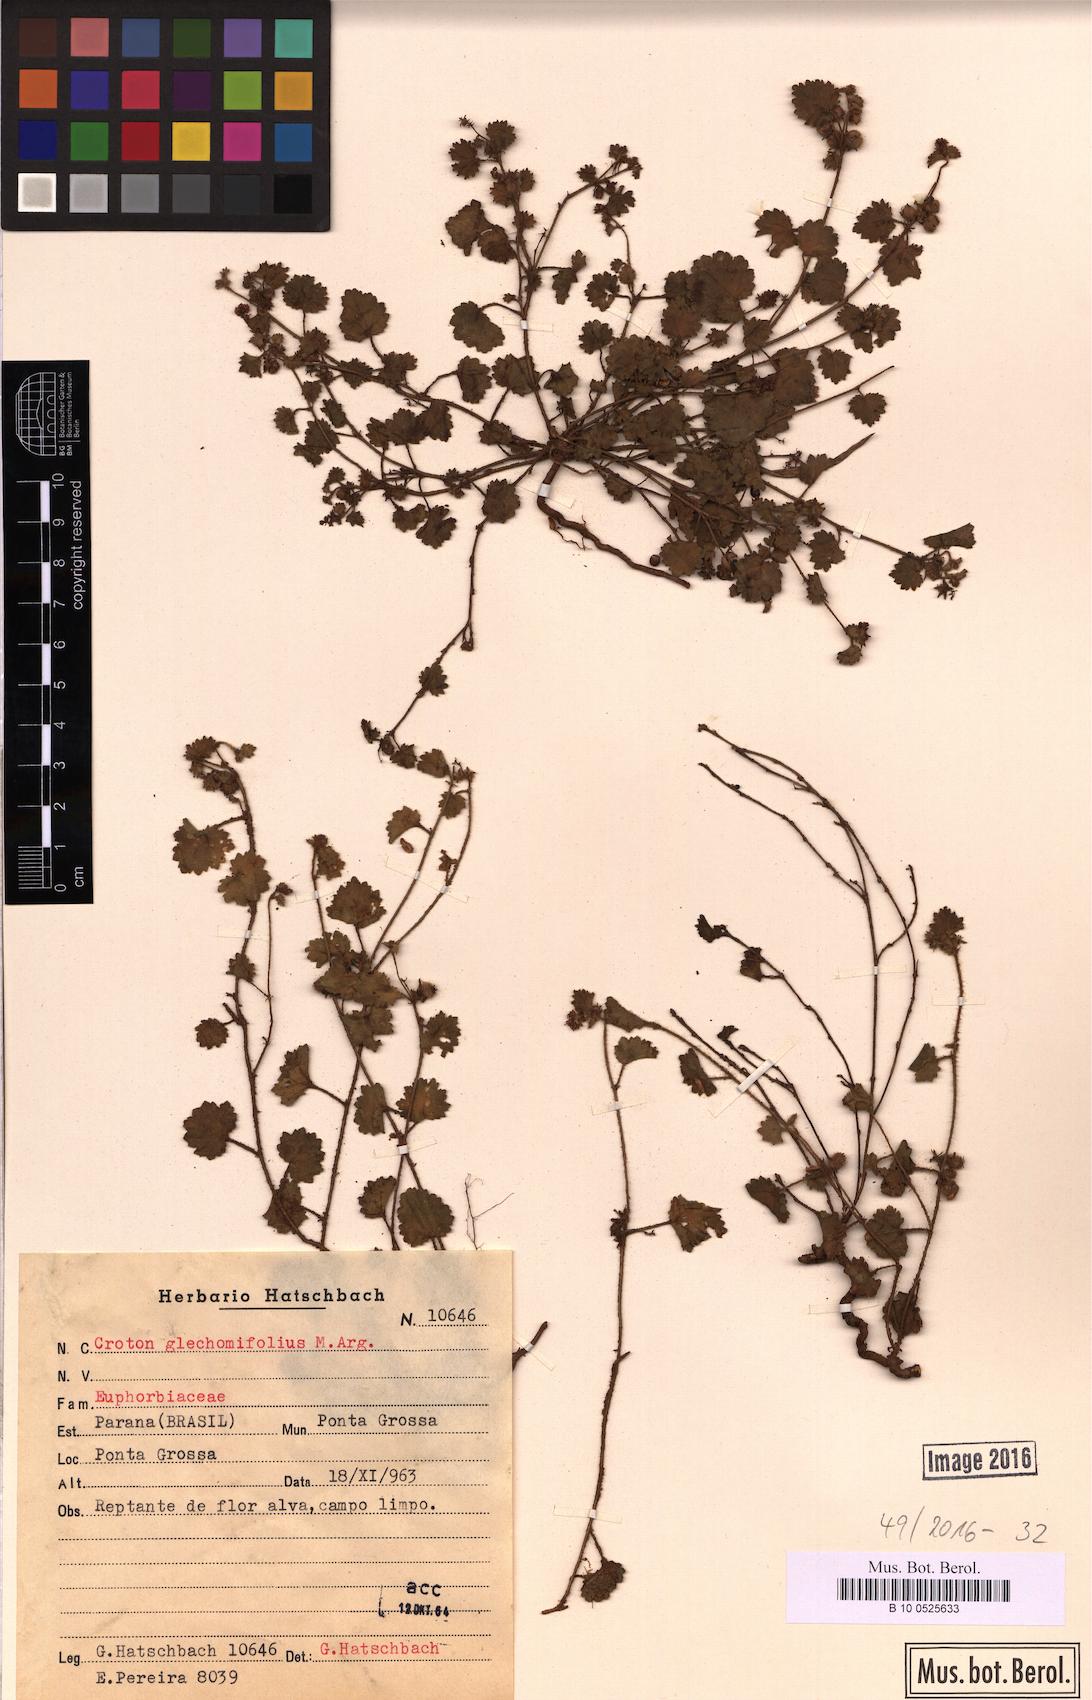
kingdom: Plantae
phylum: Tracheophyta
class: Magnoliopsida
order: Malpighiales
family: Euphorbiaceae
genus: Croton
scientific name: Croton glechomifolius
